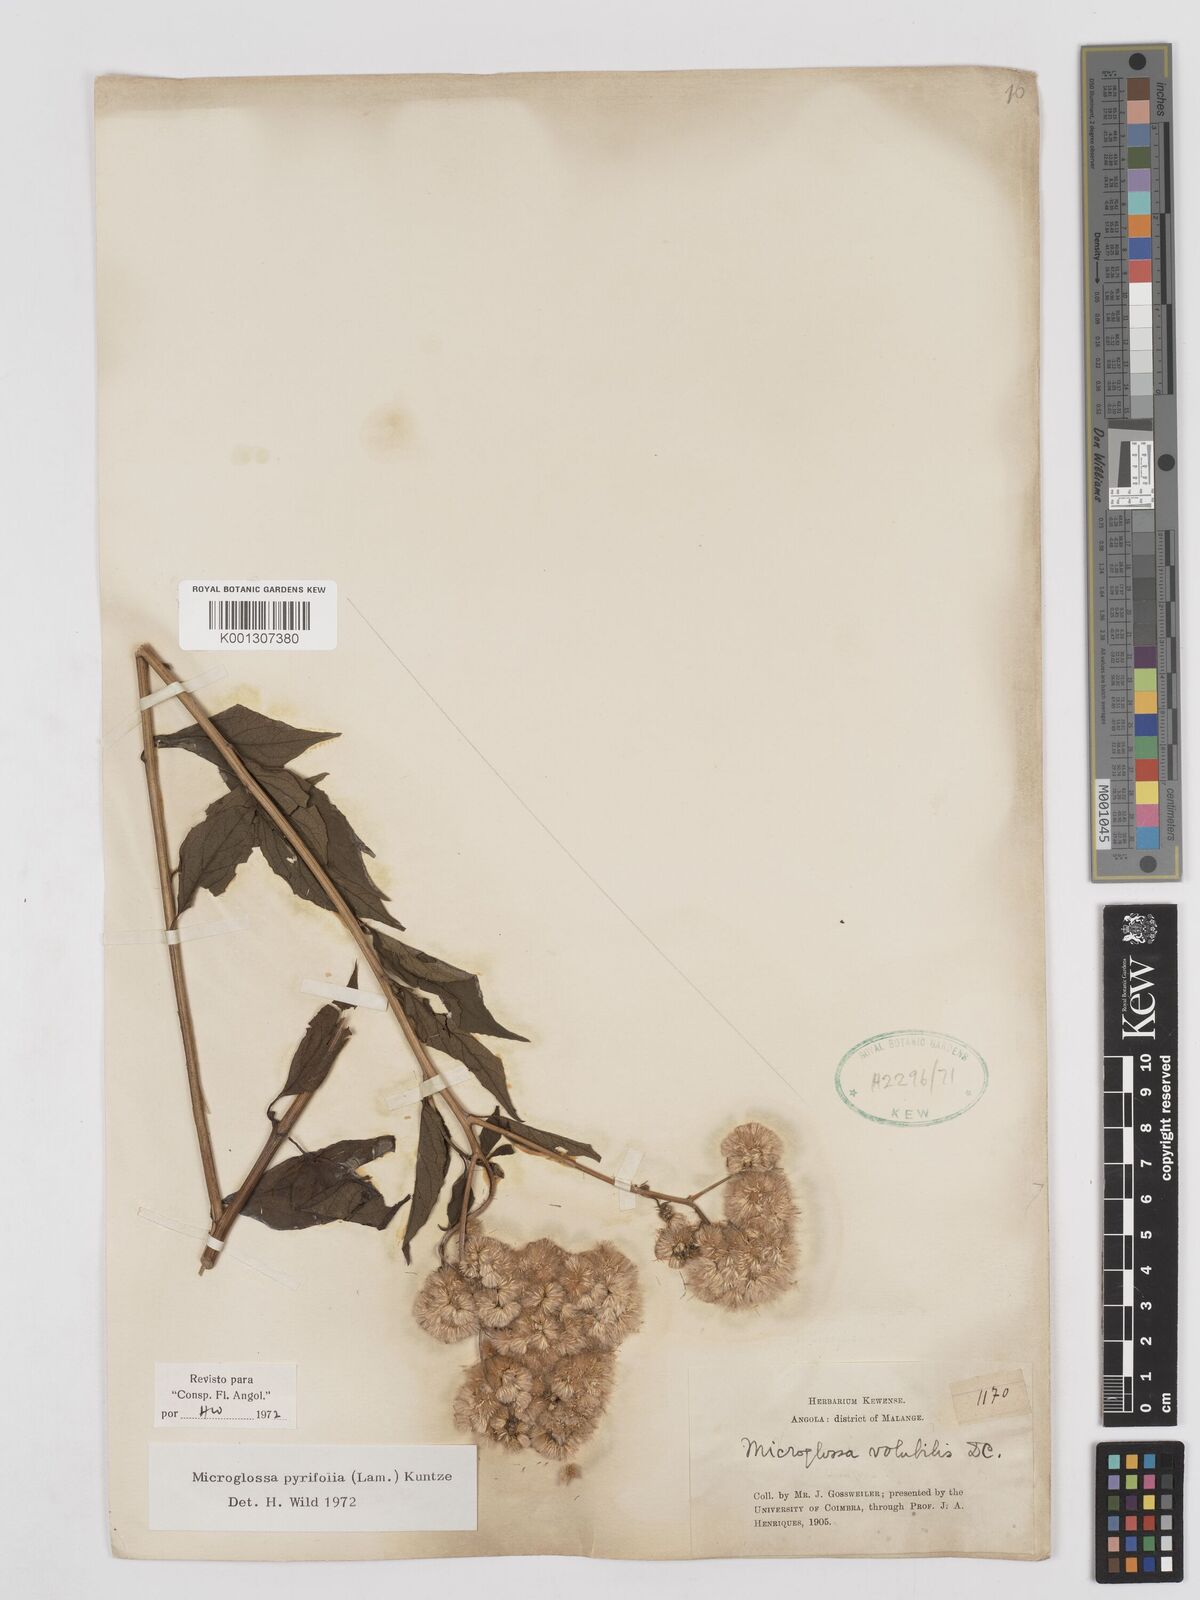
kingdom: Plantae
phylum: Tracheophyta
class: Magnoliopsida
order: Asterales
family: Asteraceae
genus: Microglossa
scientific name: Microglossa pyrifolia
